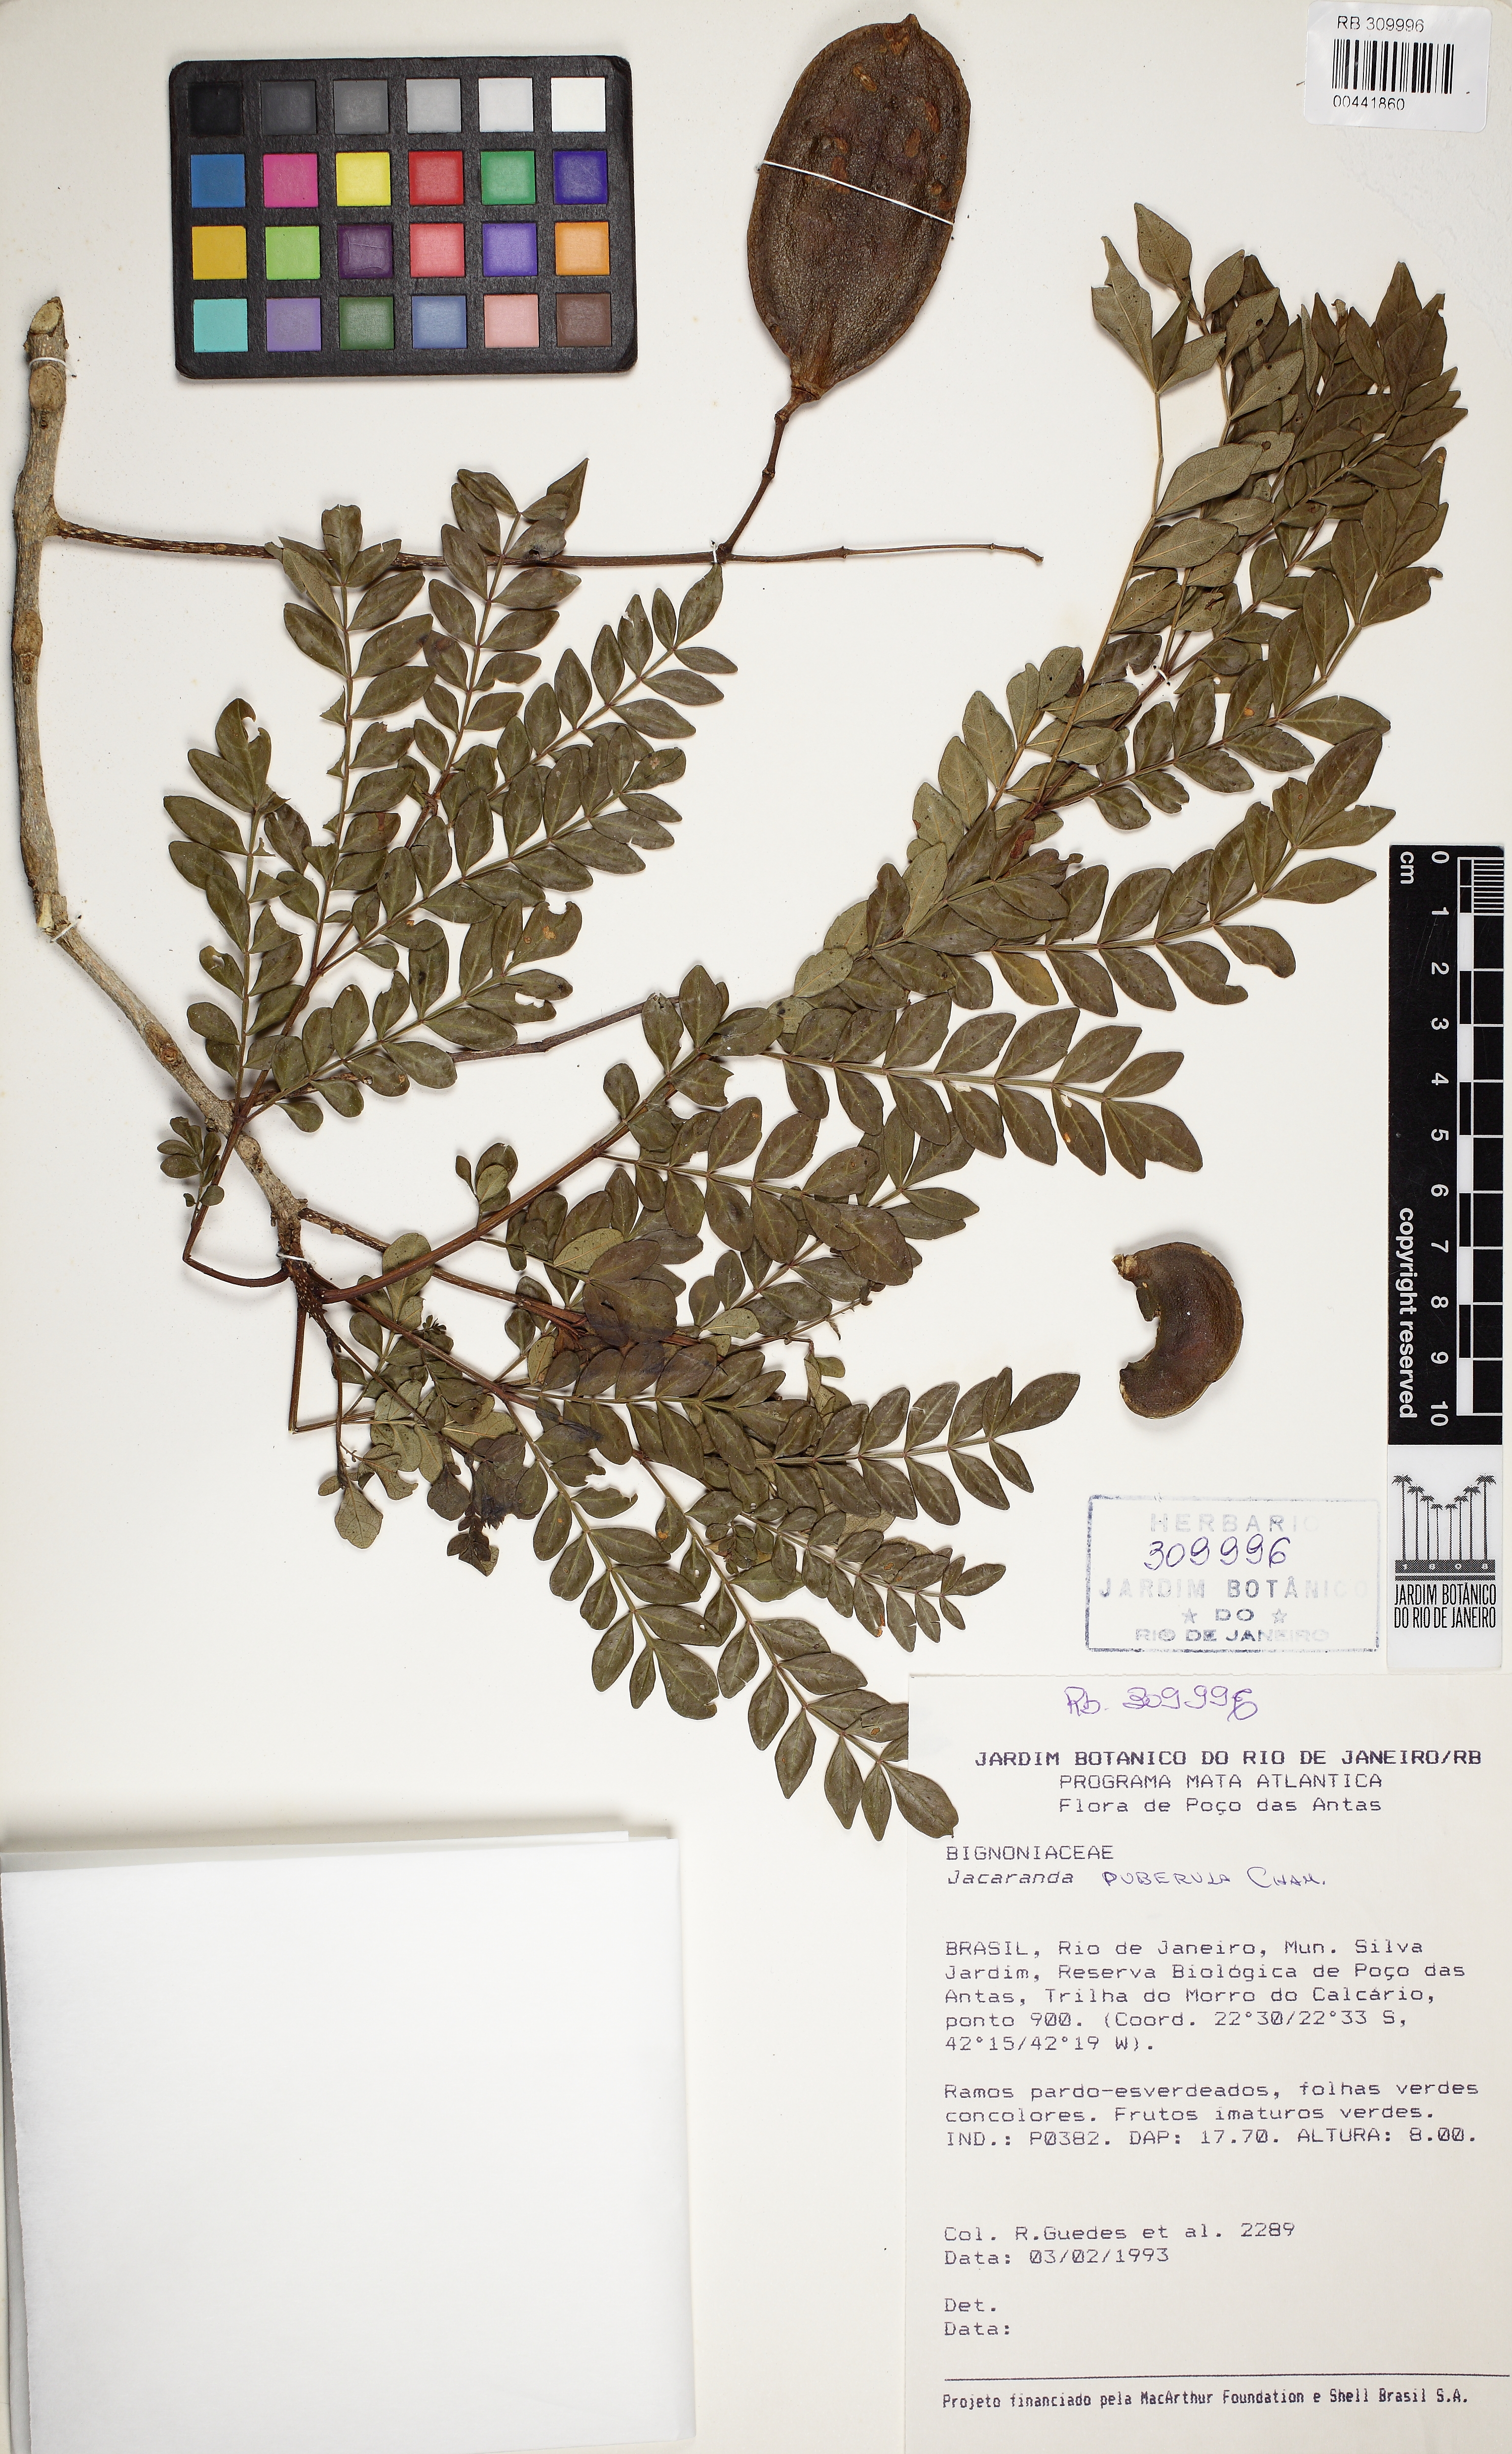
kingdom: Plantae
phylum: Tracheophyta
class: Magnoliopsida
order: Lamiales
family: Bignoniaceae
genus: Jacaranda
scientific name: Jacaranda puberula
